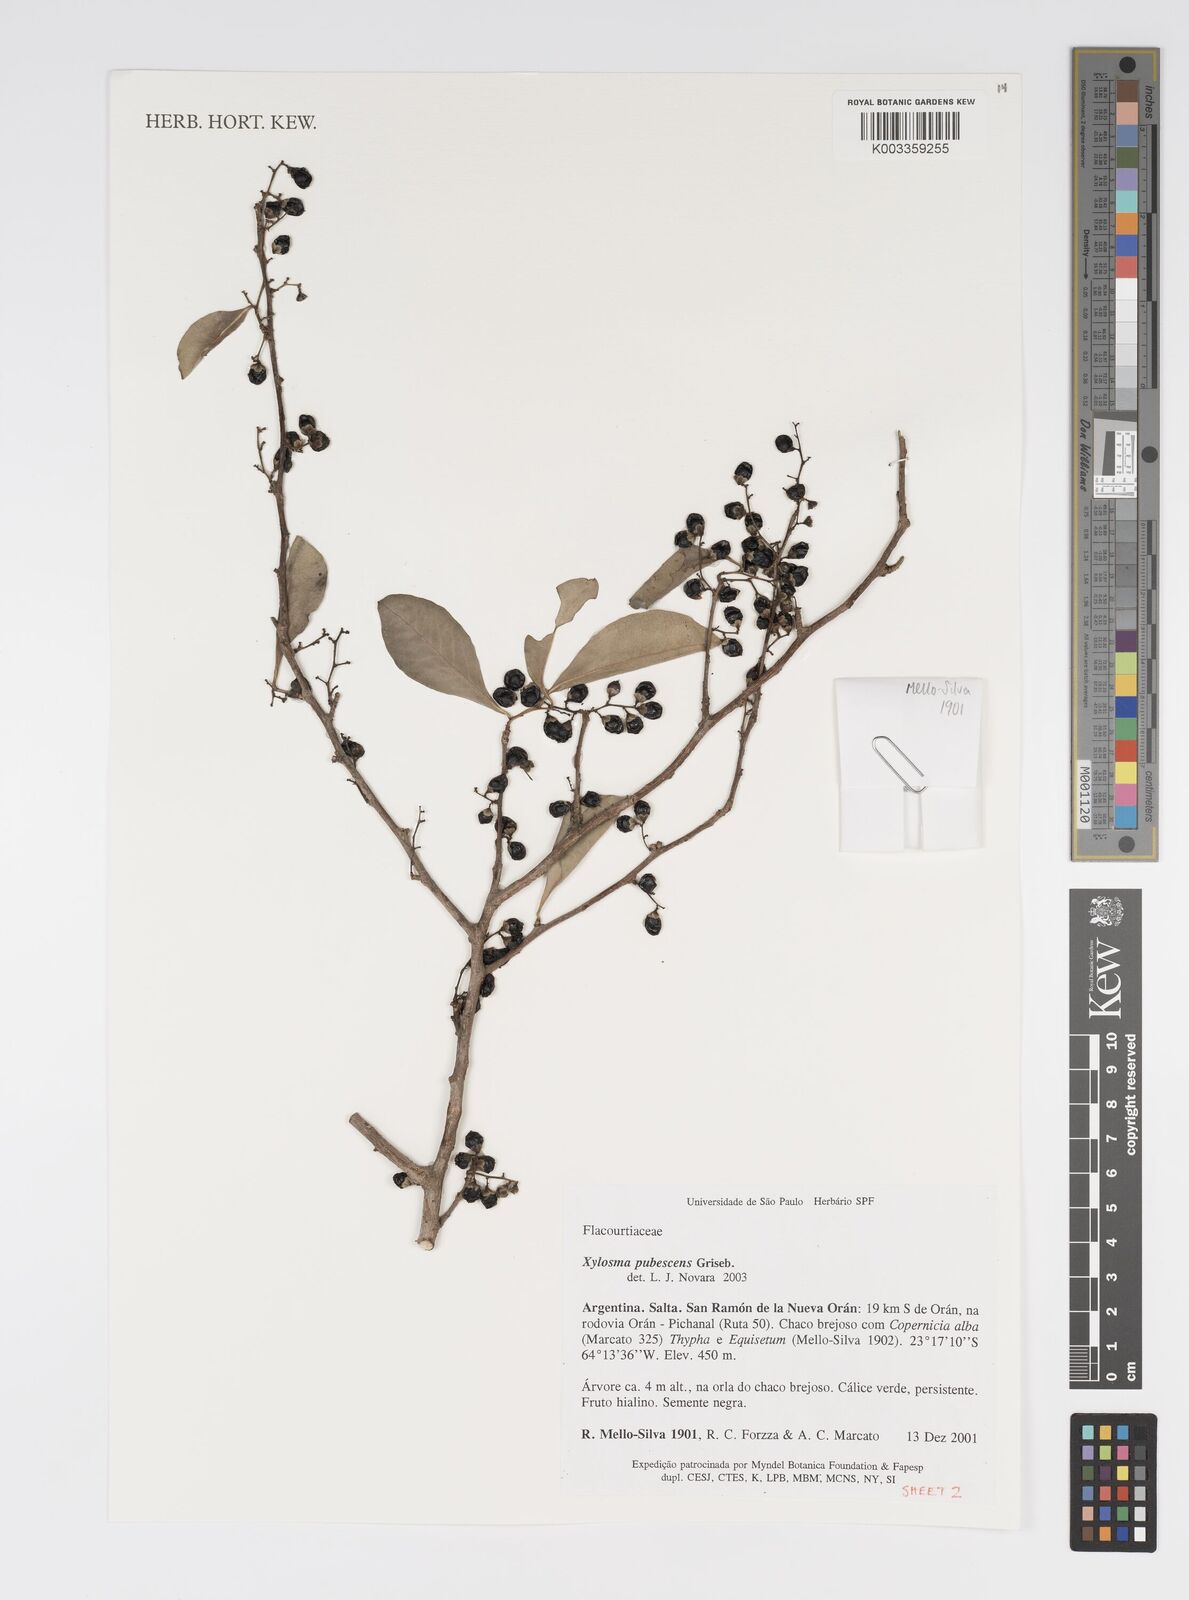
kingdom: Plantae
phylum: Tracheophyta
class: Magnoliopsida
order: Malpighiales
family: Salicaceae
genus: Xylosma
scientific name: Xylosma pubescens
